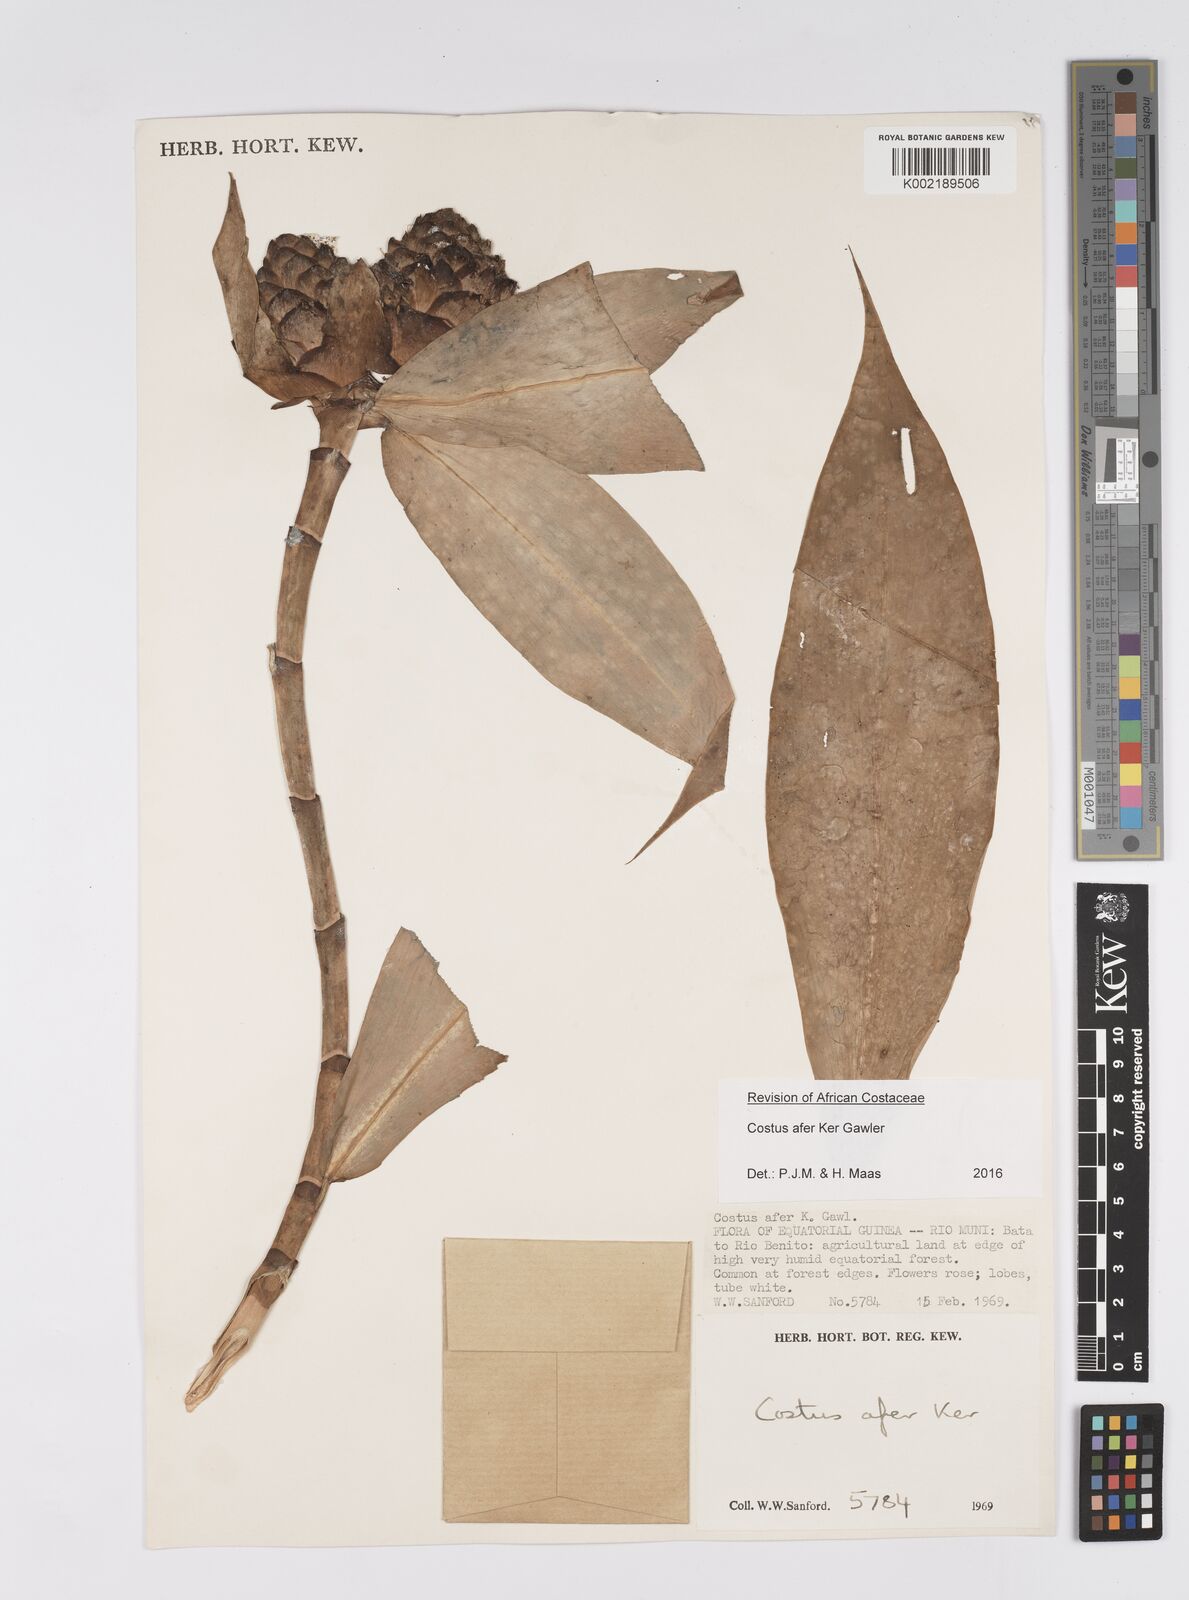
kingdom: Plantae
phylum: Tracheophyta
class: Liliopsida
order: Zingiberales
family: Costaceae
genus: Costus
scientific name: Costus afer
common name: Spiral-ginger
